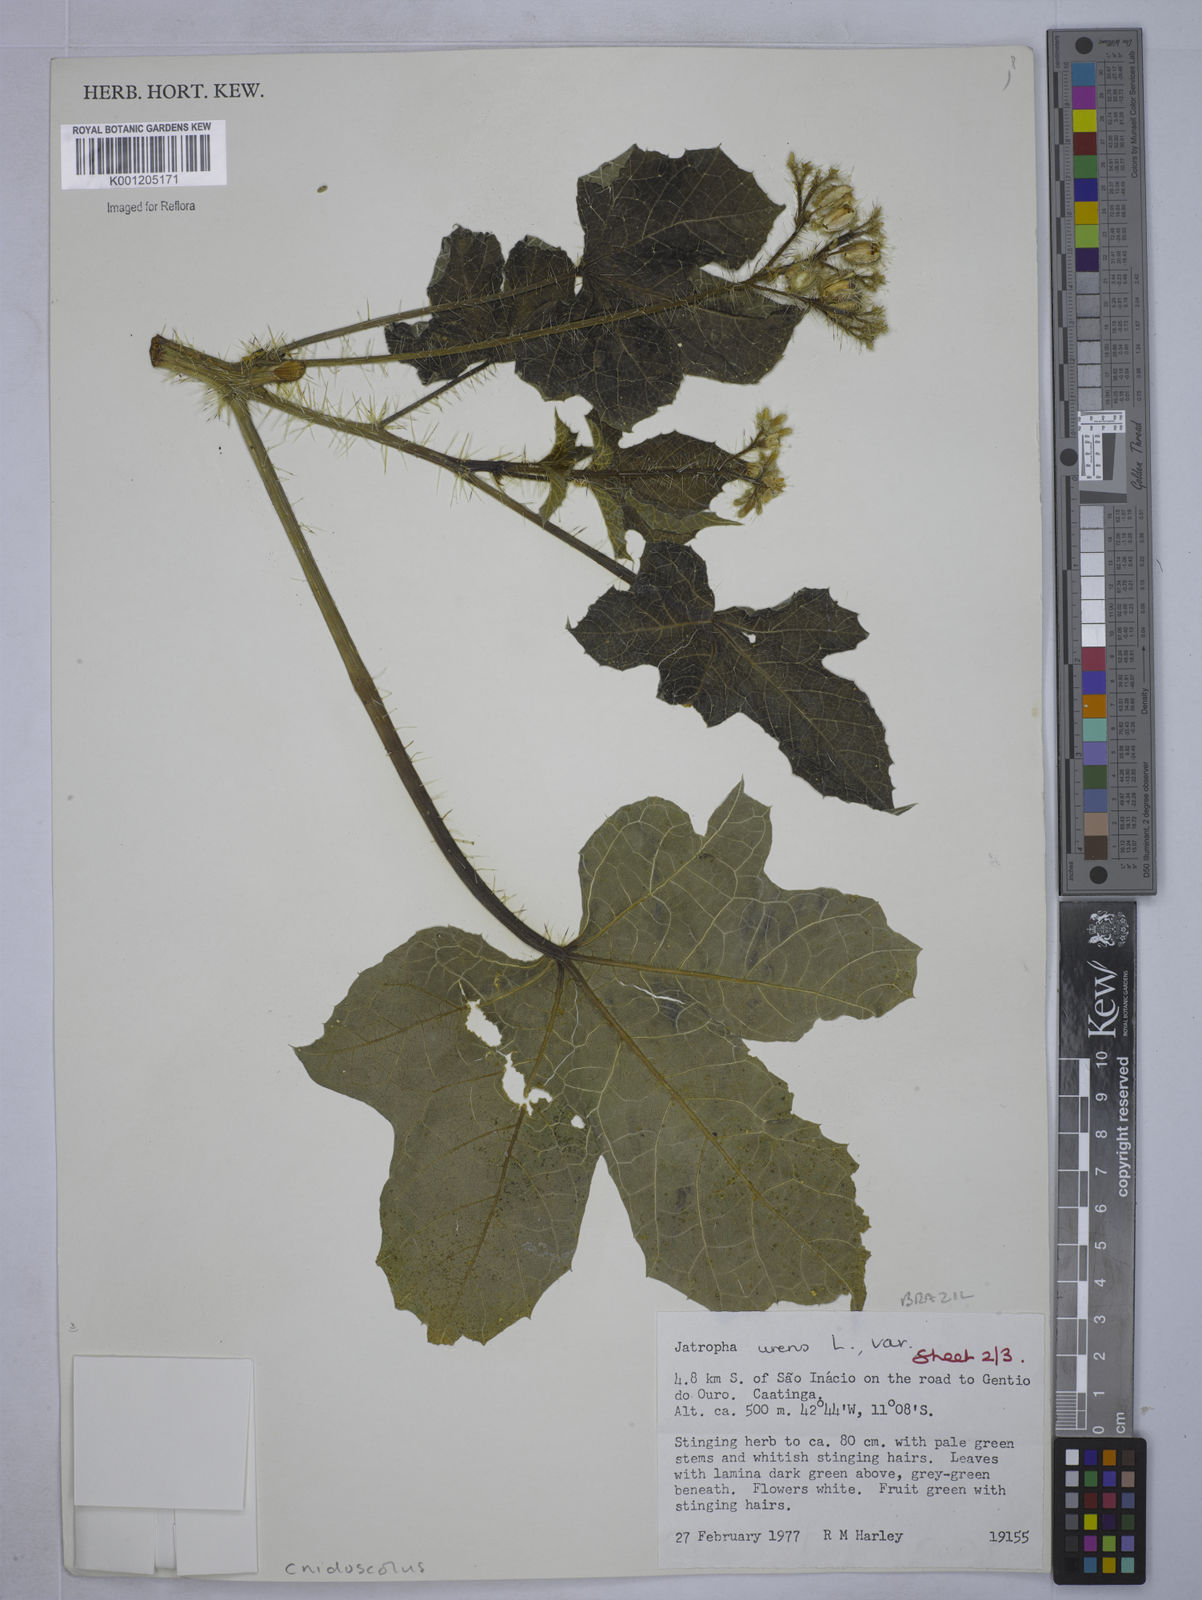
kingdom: Plantae
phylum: Tracheophyta
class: Magnoliopsida
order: Malpighiales
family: Euphorbiaceae
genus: Cnidoscolus
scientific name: Cnidoscolus urens
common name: Bull-nettle
